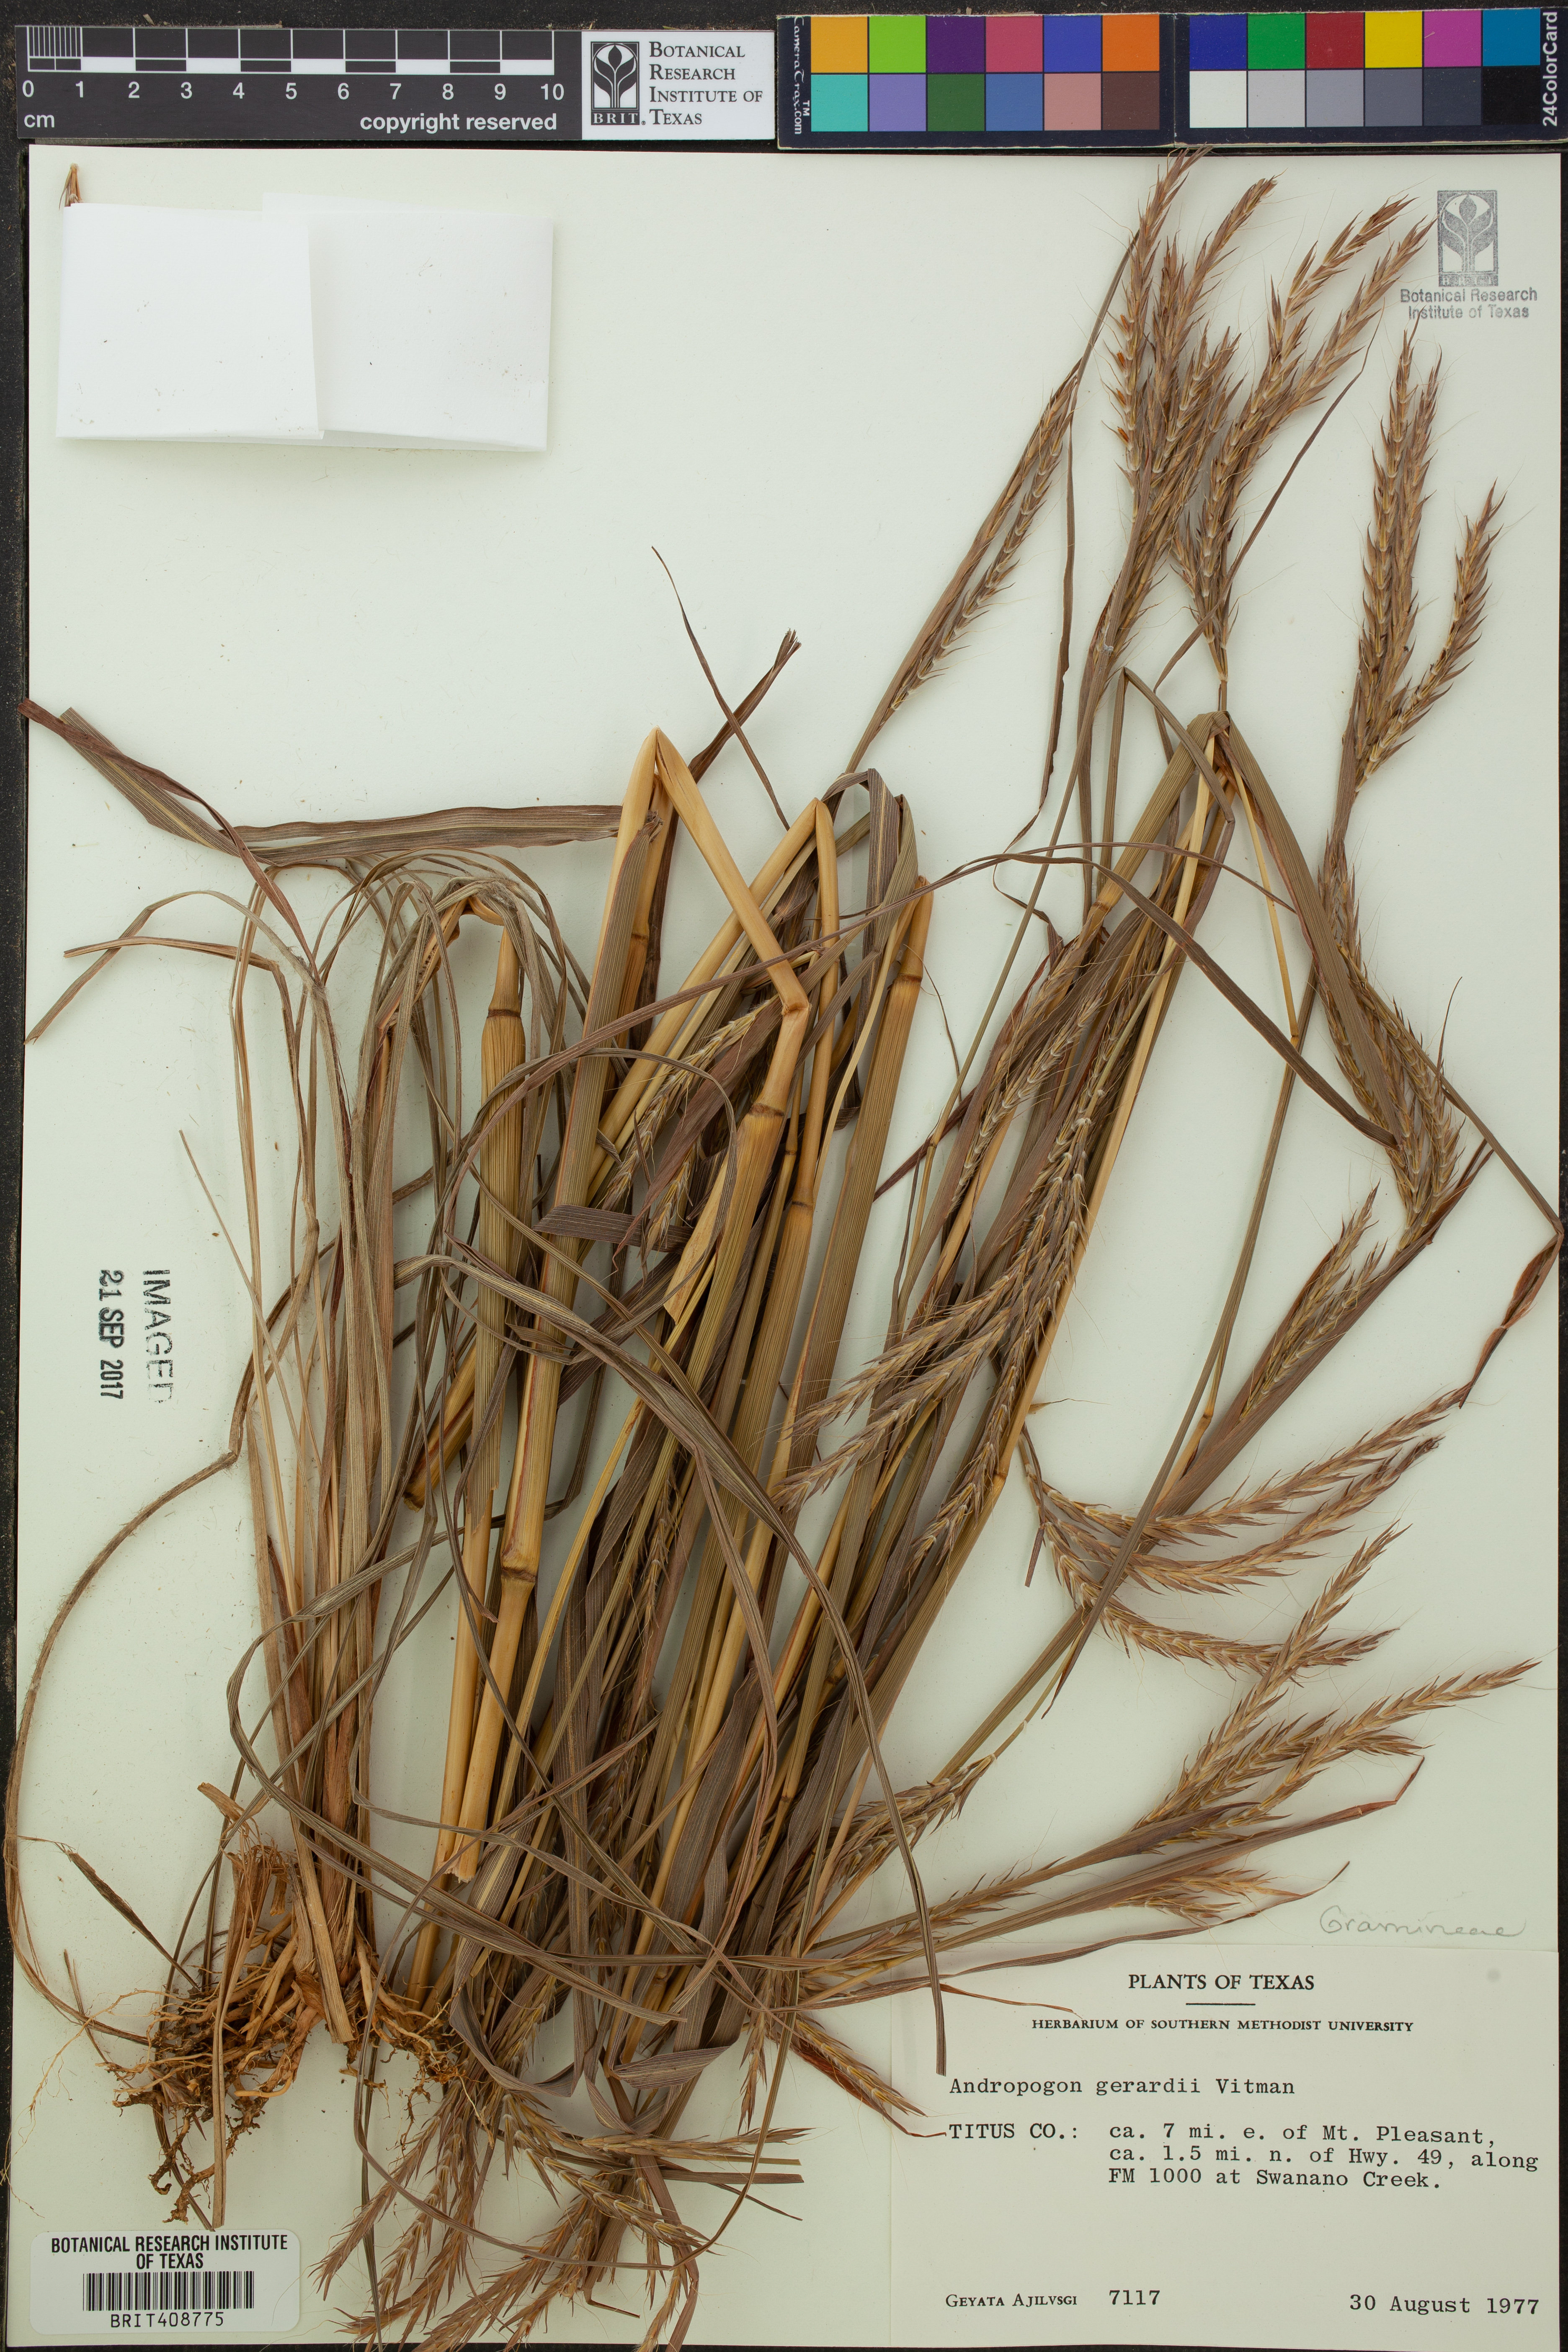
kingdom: Plantae
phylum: Tracheophyta
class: Liliopsida
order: Poales
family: Poaceae
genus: Andropogon
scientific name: Andropogon gerardi
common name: Big bluestem
